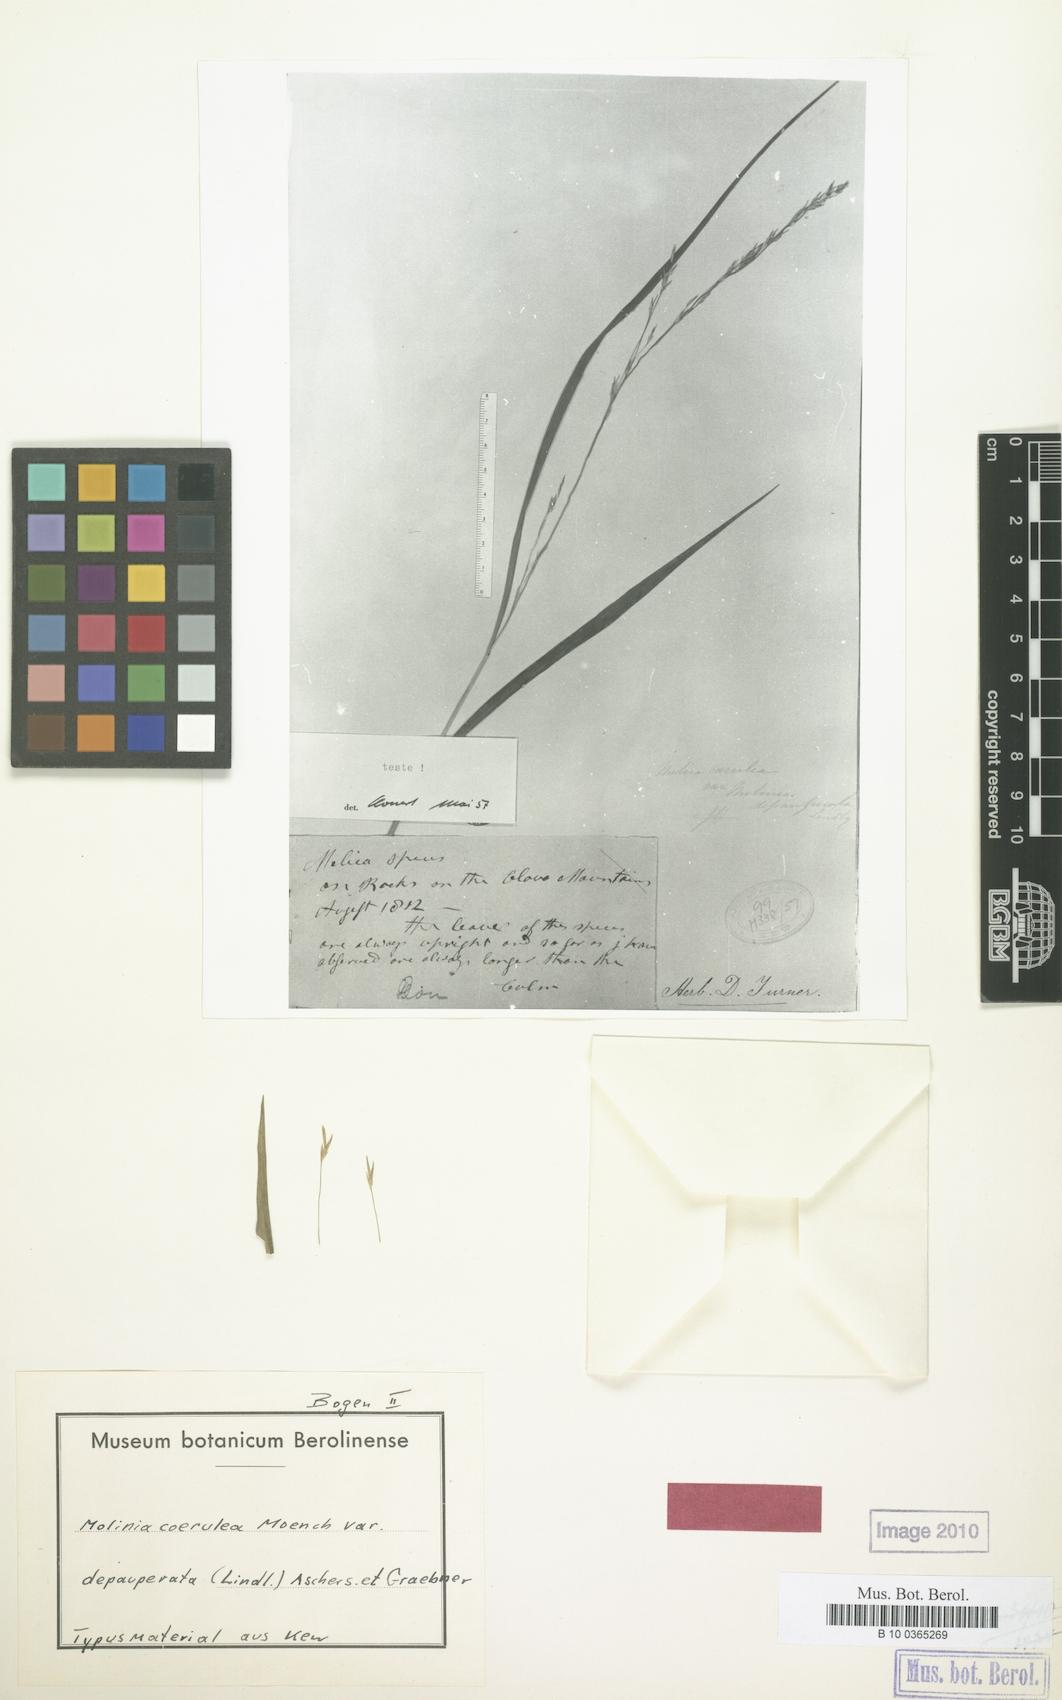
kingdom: Plantae
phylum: Tracheophyta
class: Liliopsida
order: Poales
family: Poaceae
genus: Molinia
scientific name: Molinia caerulea
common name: Purple moor-grass
